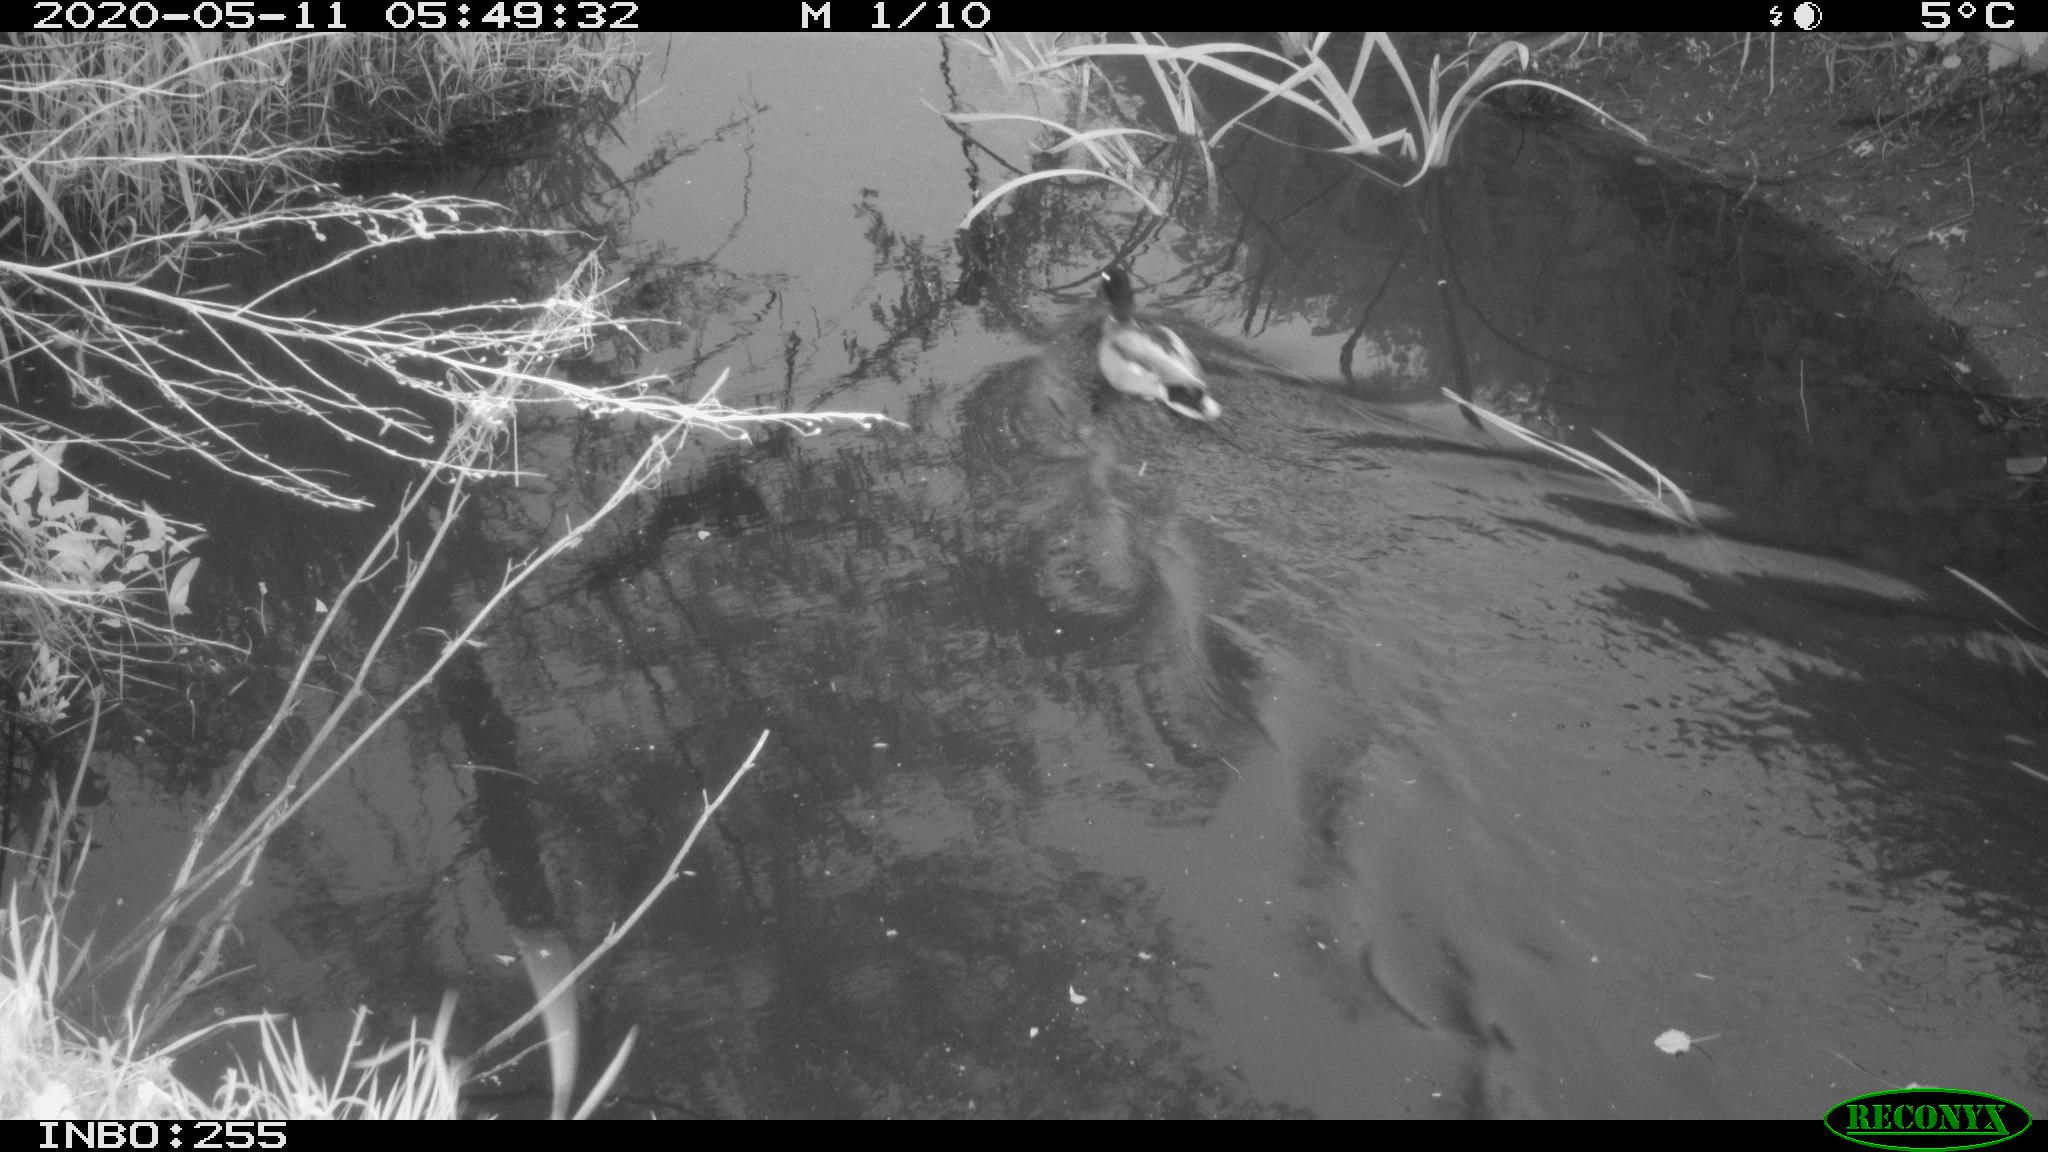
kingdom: Animalia
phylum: Chordata
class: Aves
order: Anseriformes
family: Anatidae
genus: Anas
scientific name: Anas platyrhynchos
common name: Mallard
